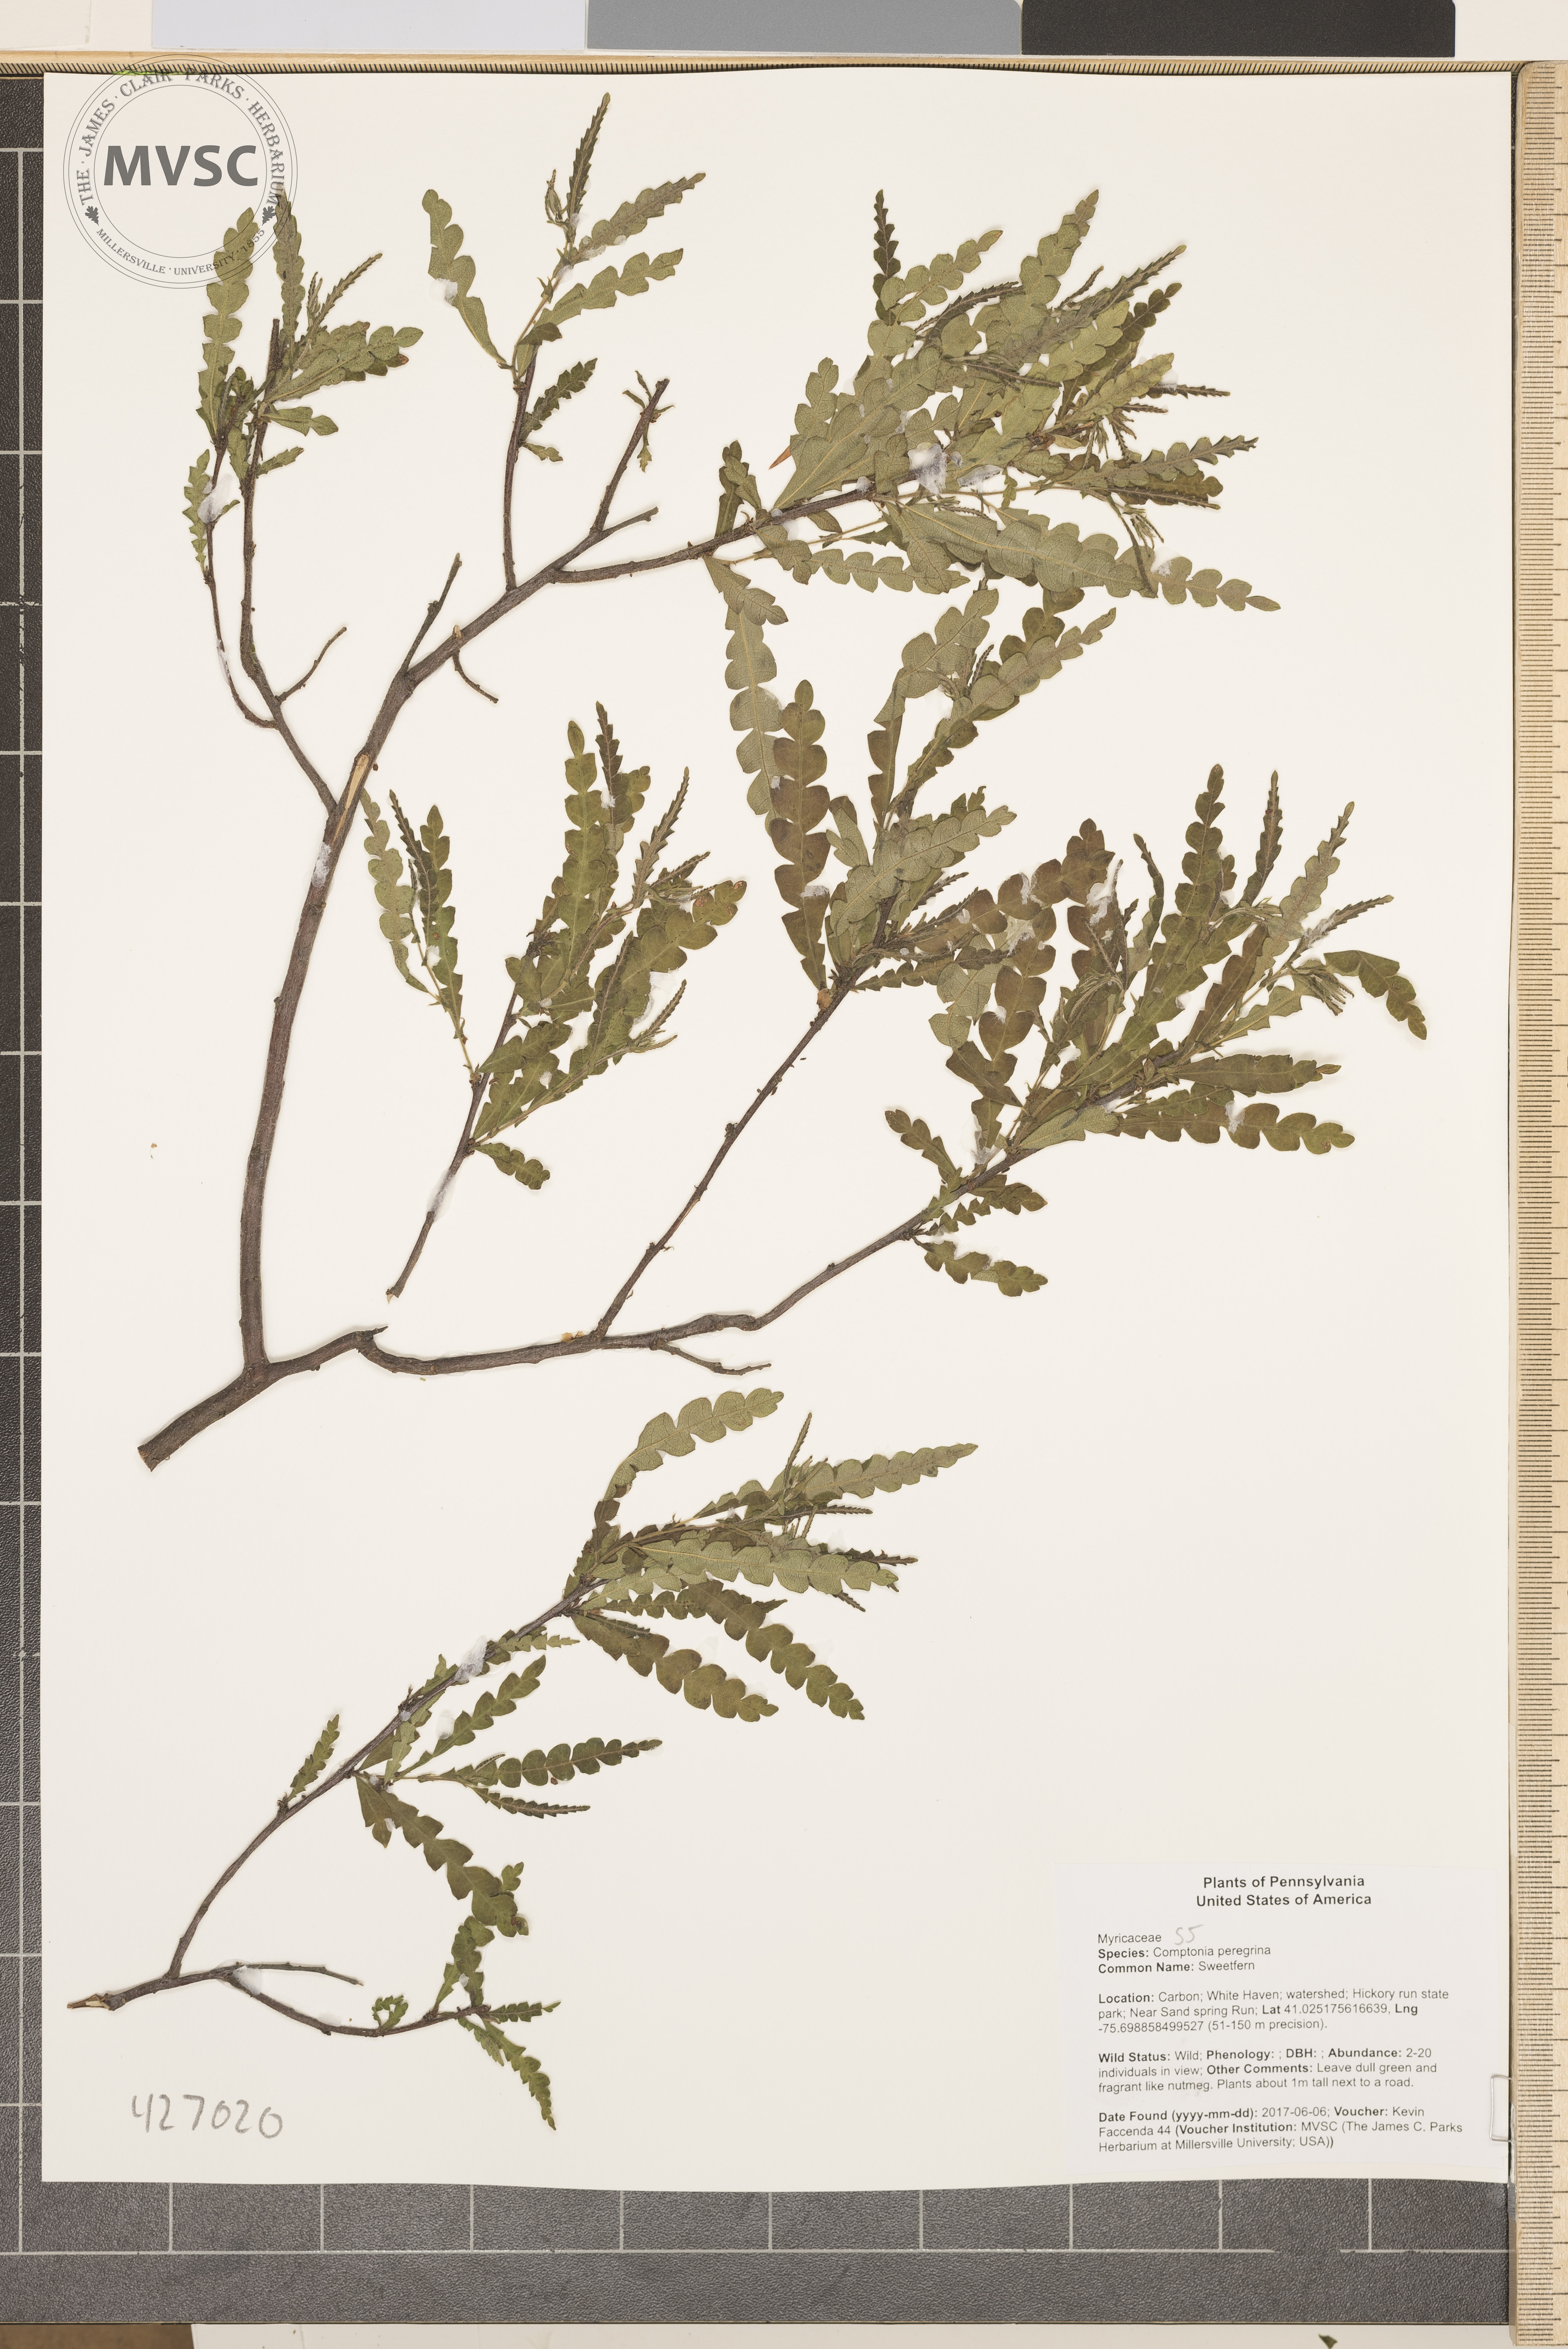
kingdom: Plantae
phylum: Tracheophyta
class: Magnoliopsida
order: Fagales
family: Myricaceae
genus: Comptonia
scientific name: Comptonia peregrina
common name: Sweetfern
